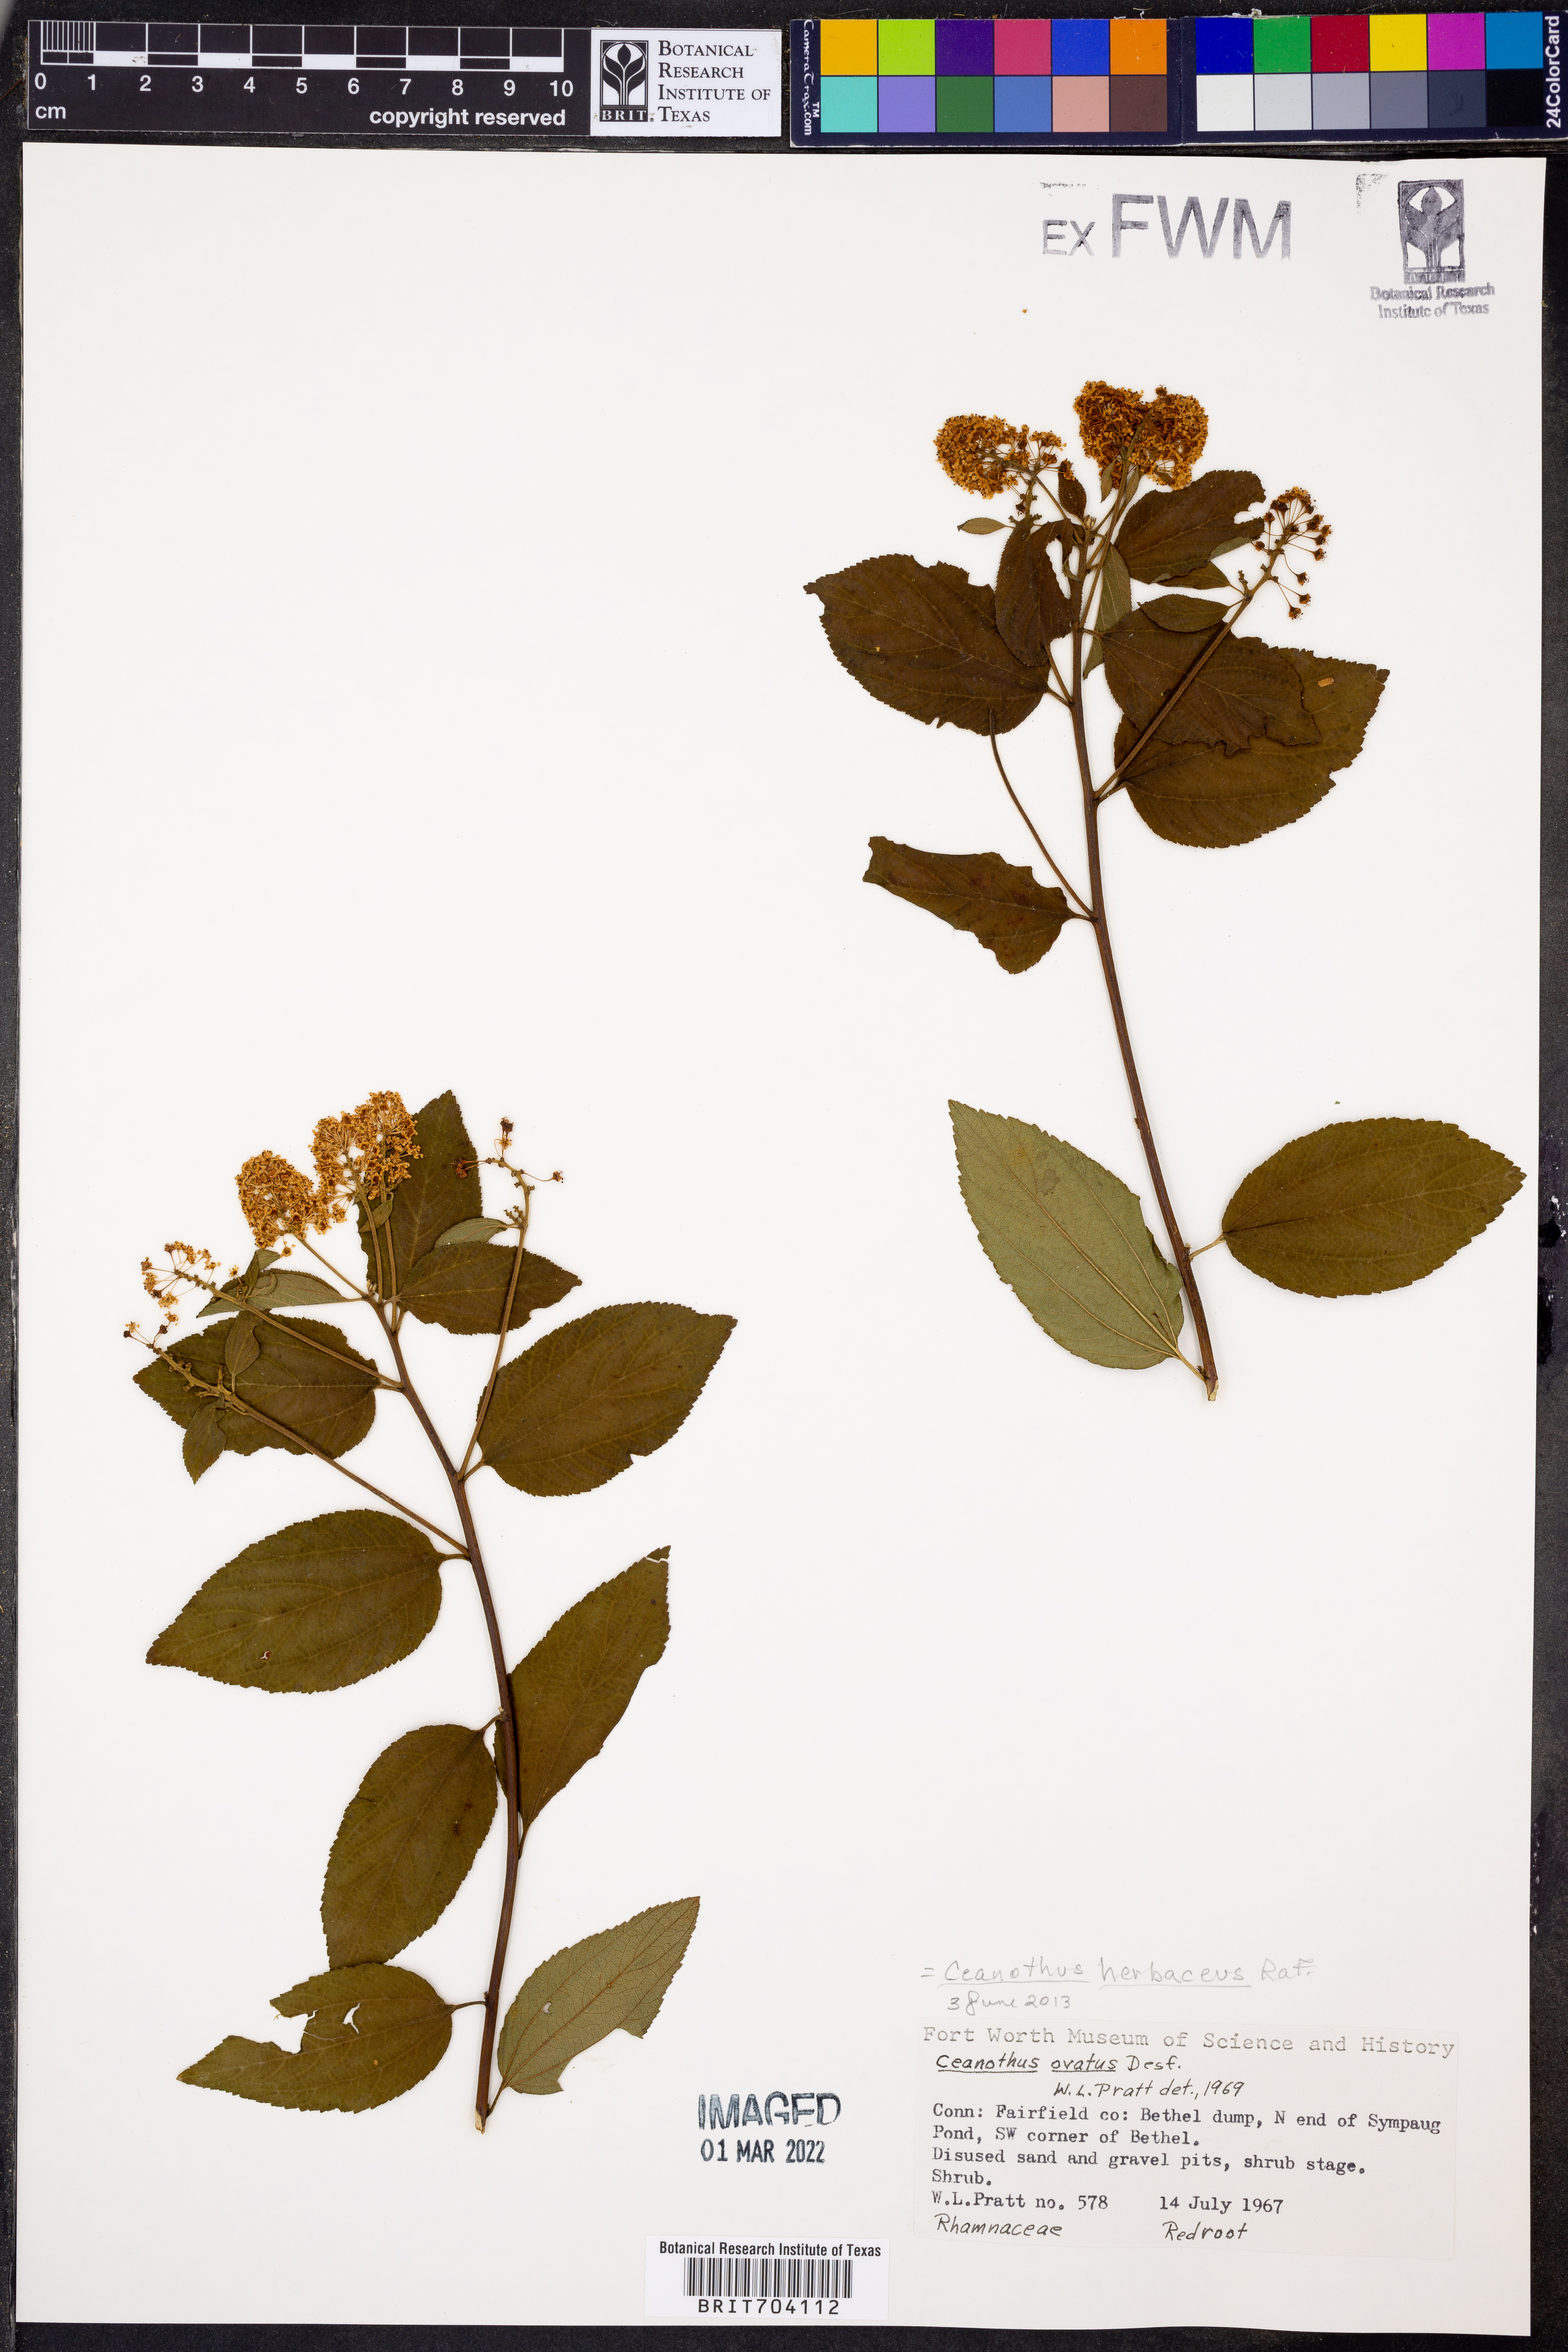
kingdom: Plantae
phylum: Tracheophyta
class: Magnoliopsida
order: Rosales
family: Rhamnaceae
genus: Ceanothus
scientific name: Ceanothus herbaceus
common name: Inland ceanothus
